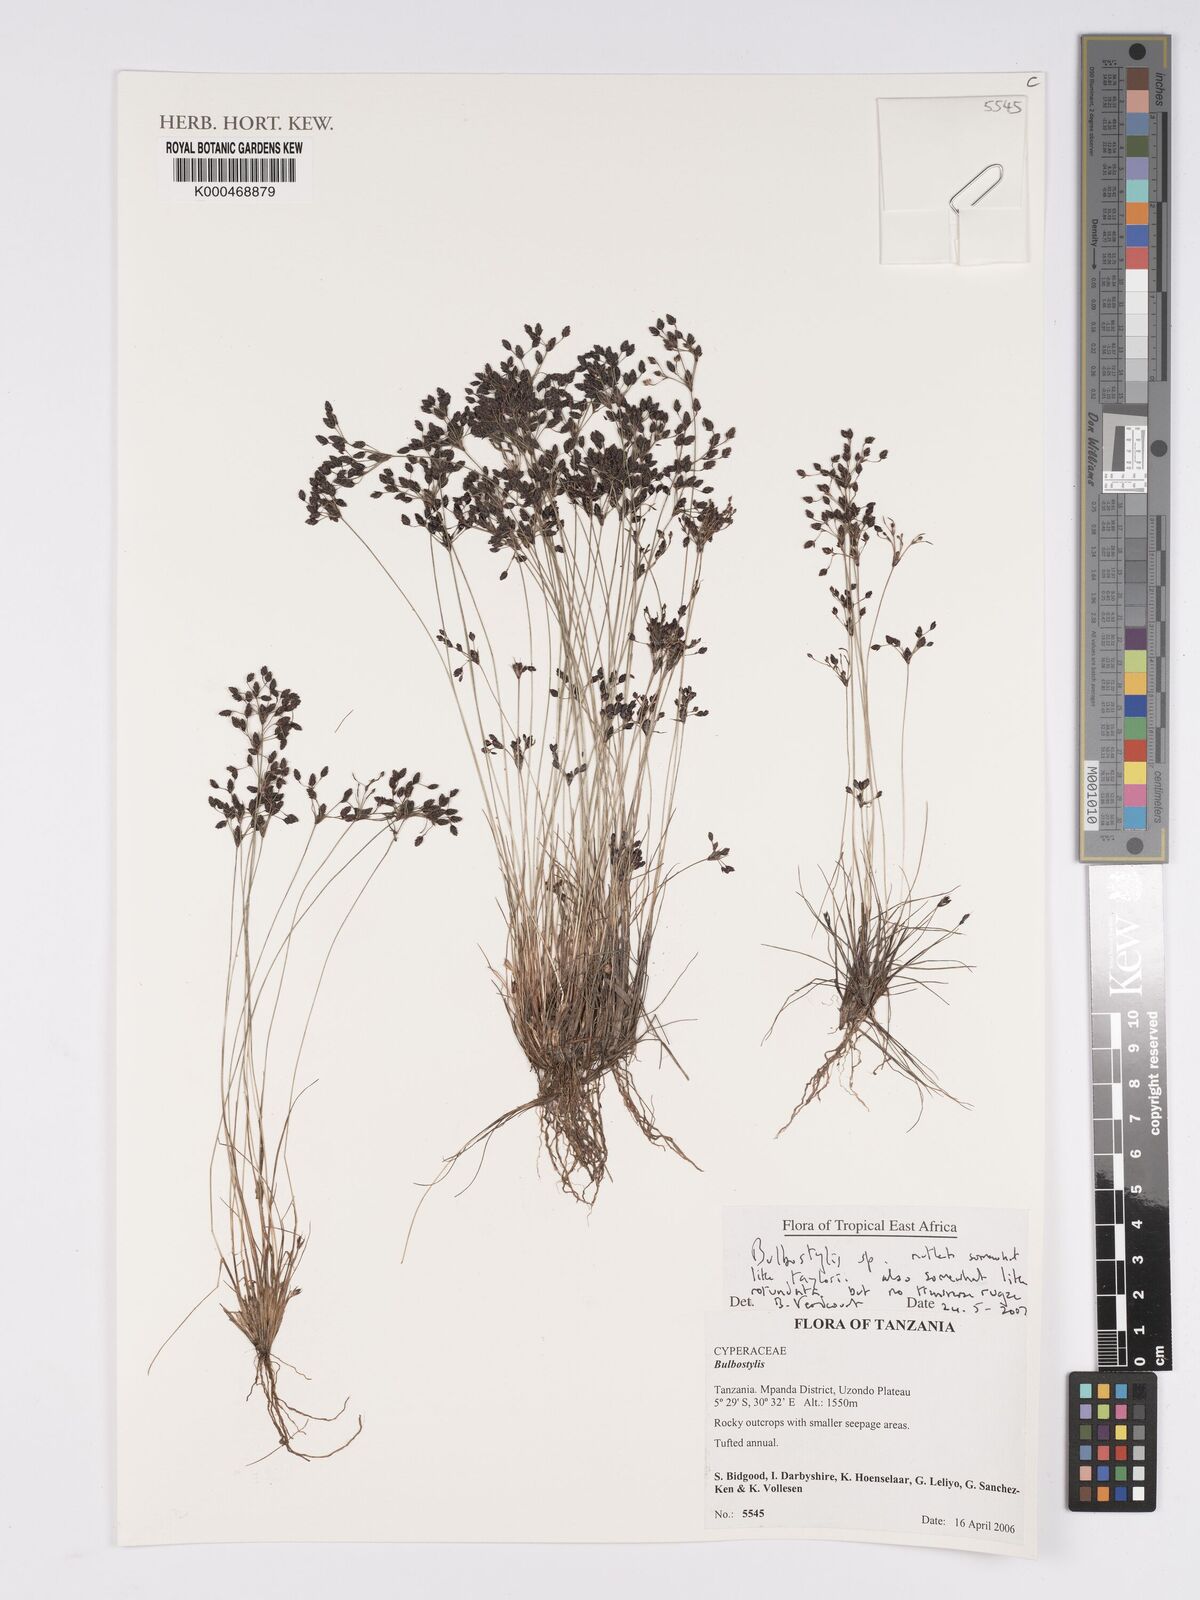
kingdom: Plantae
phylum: Tracheophyta
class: Liliopsida
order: Poales
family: Cyperaceae
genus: Bulbostylis
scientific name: Bulbostylis
